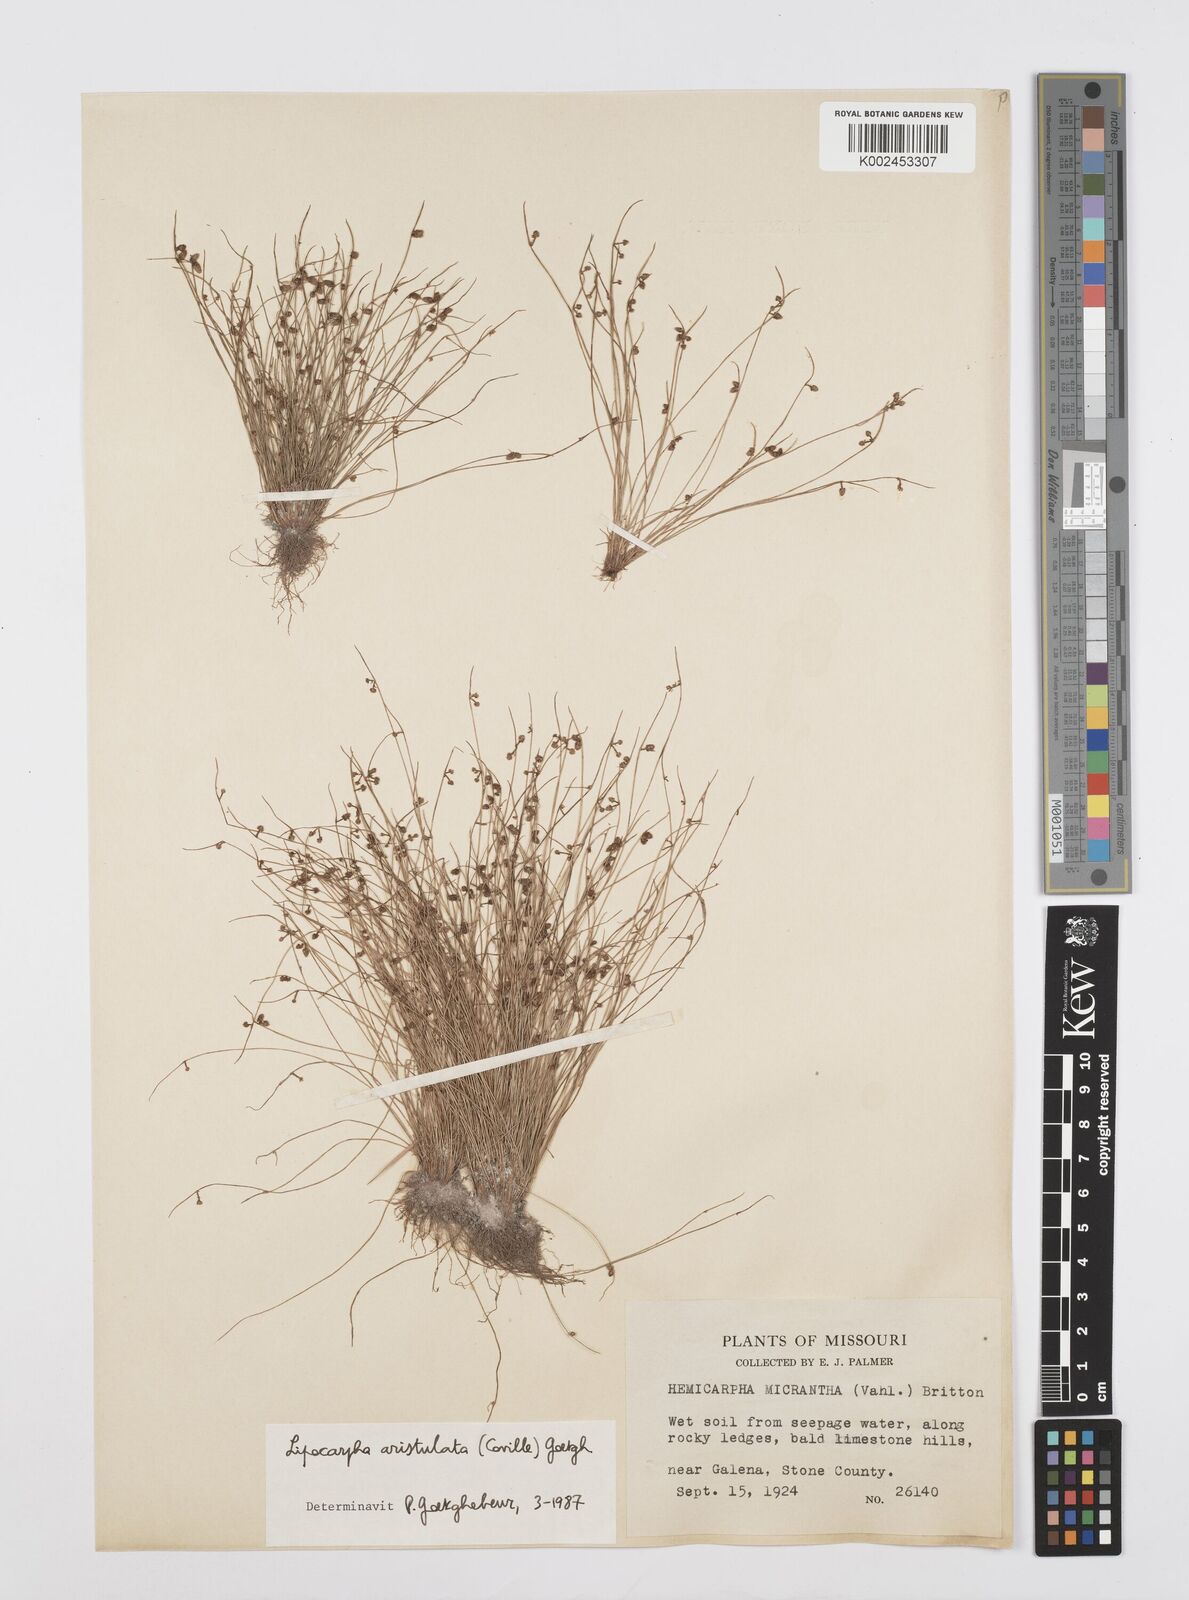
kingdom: Plantae
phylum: Tracheophyta
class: Liliopsida
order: Poales
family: Cyperaceae
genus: Cyperus
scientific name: Cyperus aristulatus
